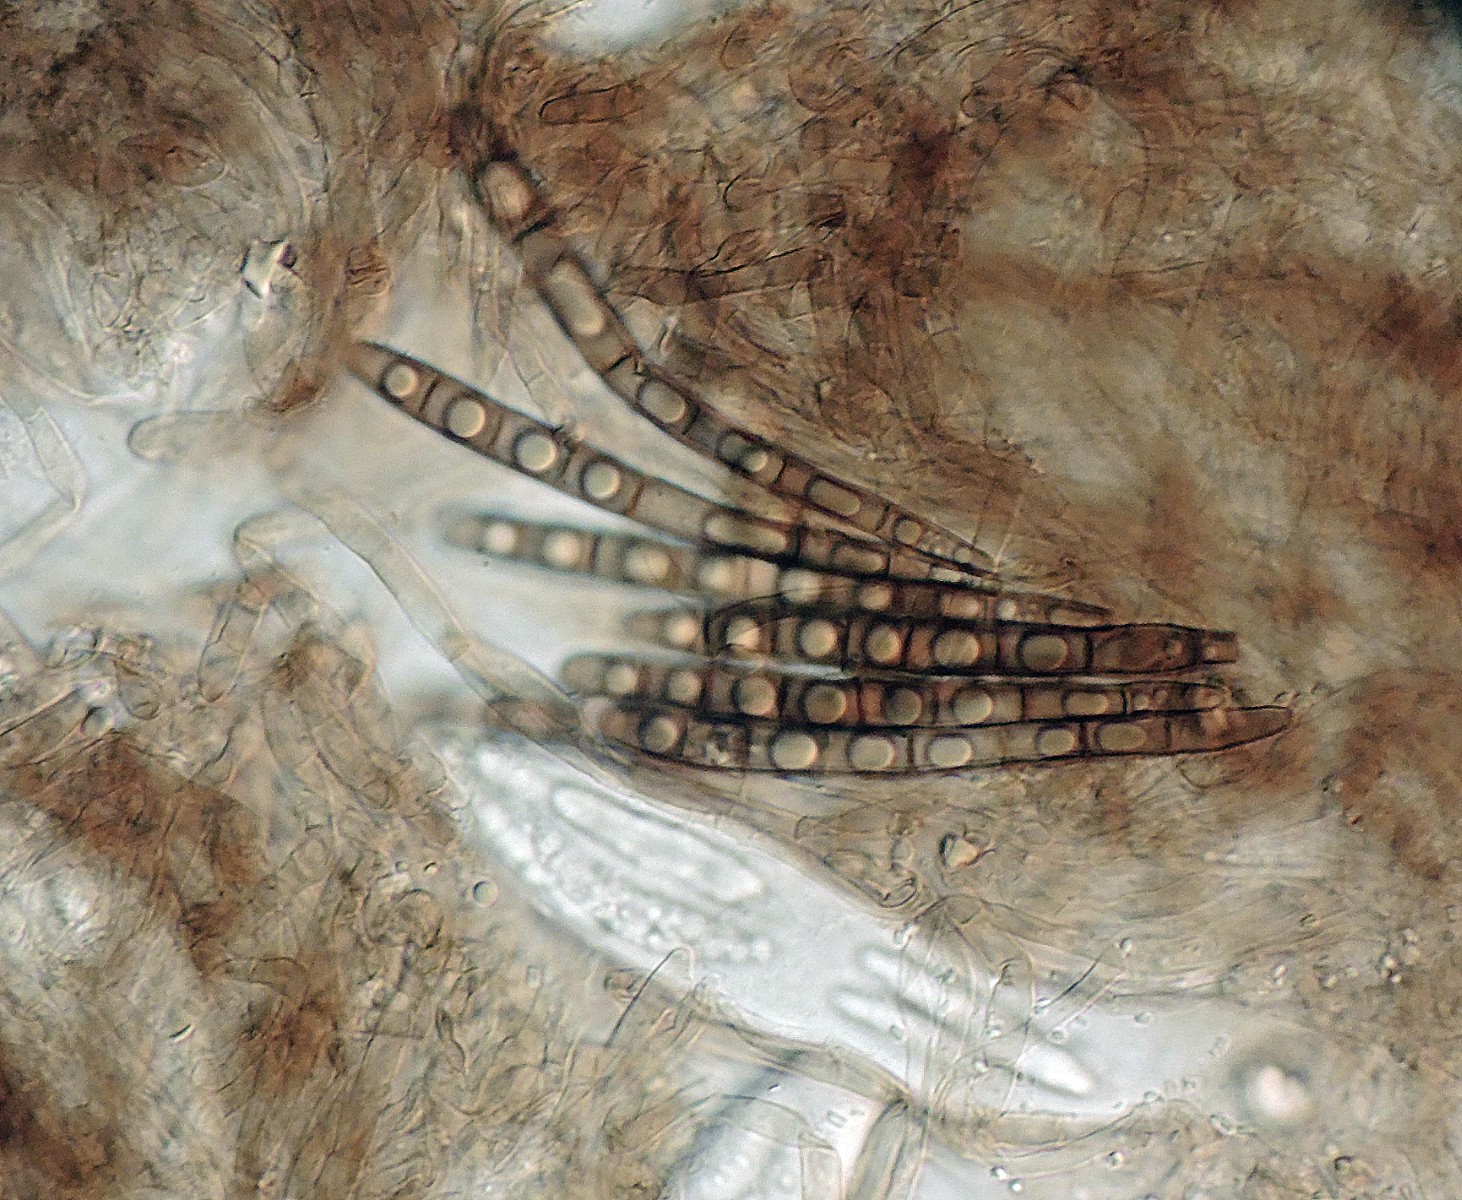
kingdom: Fungi
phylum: Ascomycota
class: Geoglossomycetes
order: Geoglossales
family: Geoglossaceae
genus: Geoglossum
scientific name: Geoglossum
